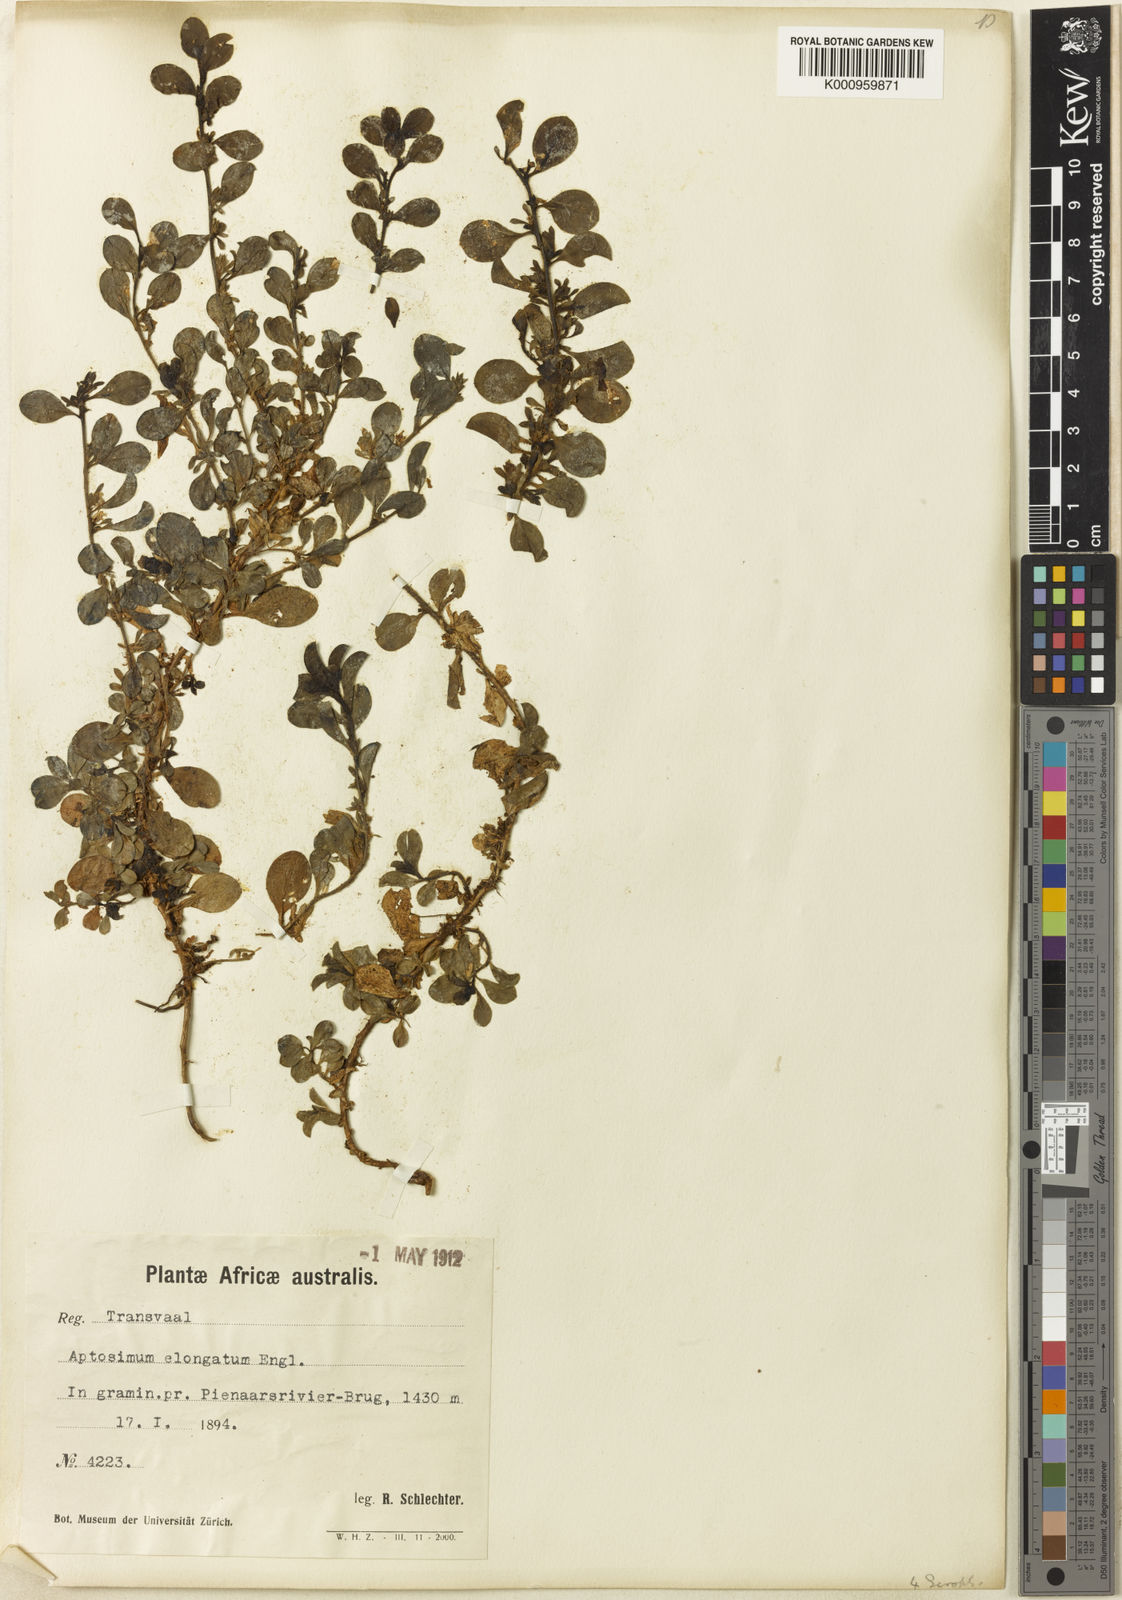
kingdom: Plantae
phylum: Tracheophyta
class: Magnoliopsida
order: Lamiales
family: Scrophulariaceae
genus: Aptosimum
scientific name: Aptosimum elongatum
